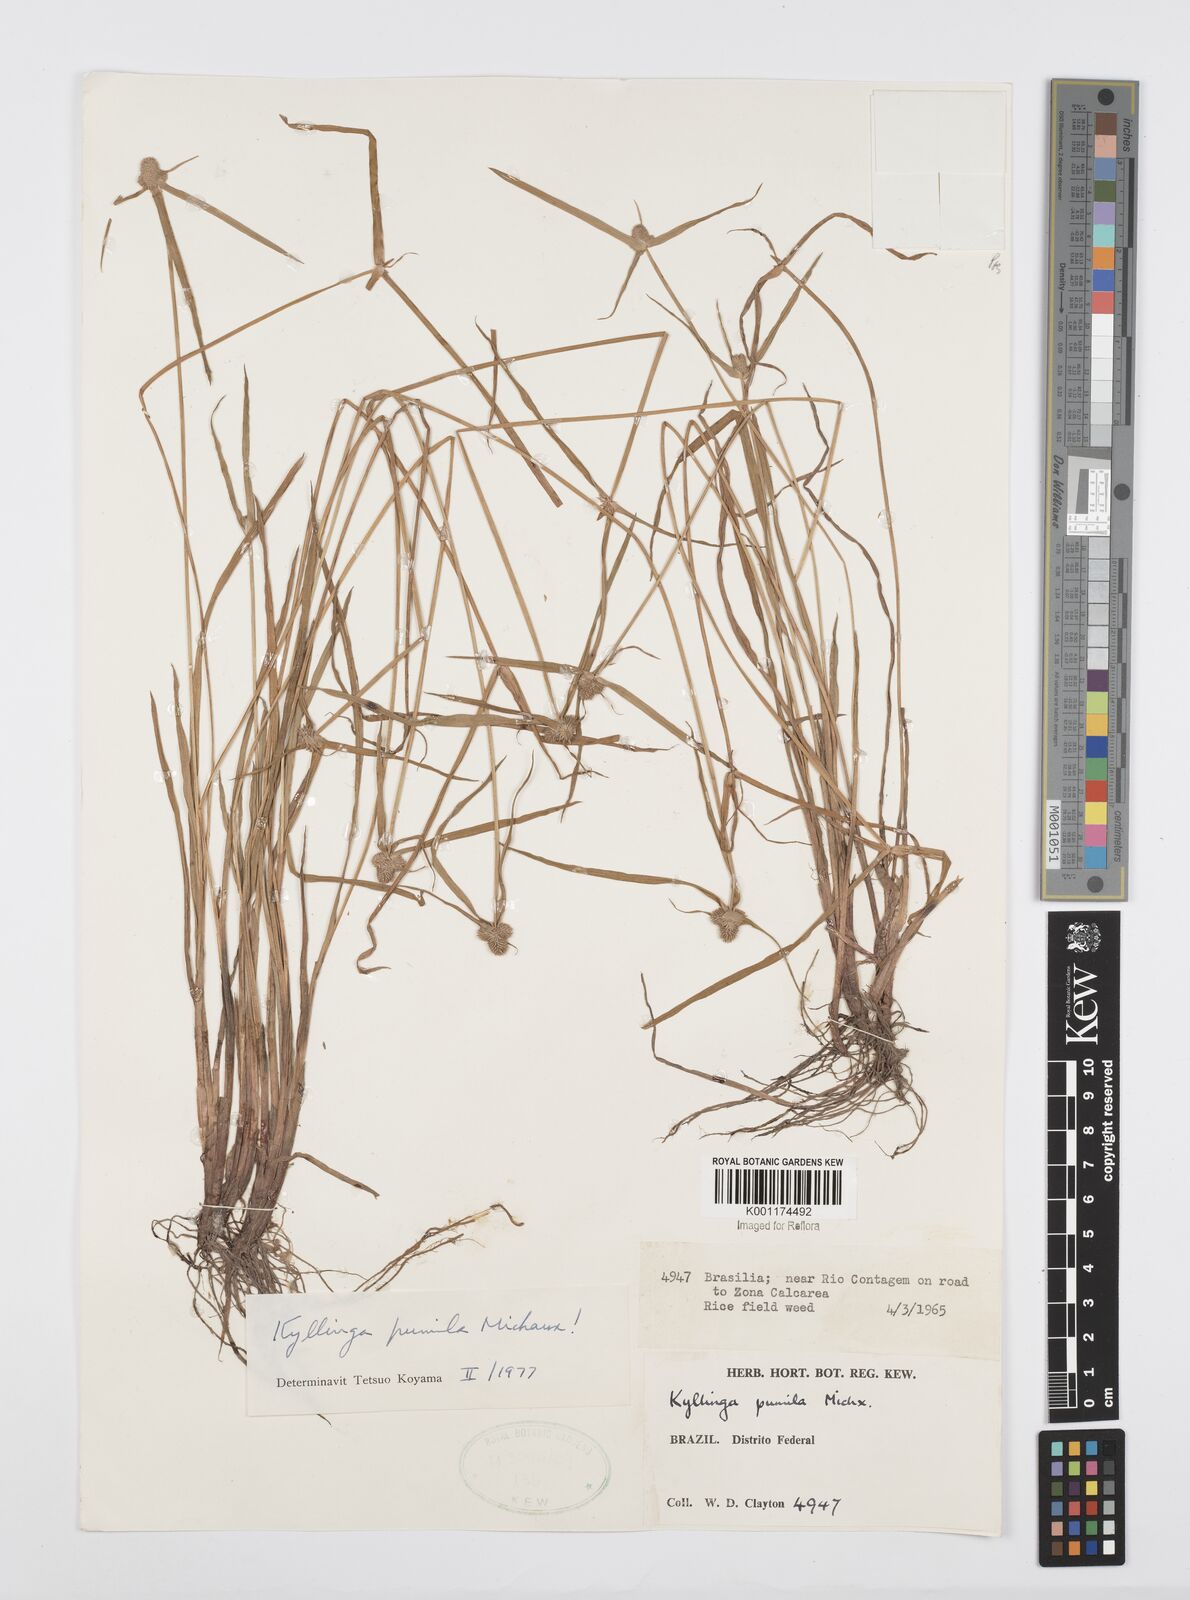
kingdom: Plantae
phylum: Tracheophyta
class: Liliopsida
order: Poales
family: Cyperaceae
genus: Cyperus
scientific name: Cyperus
